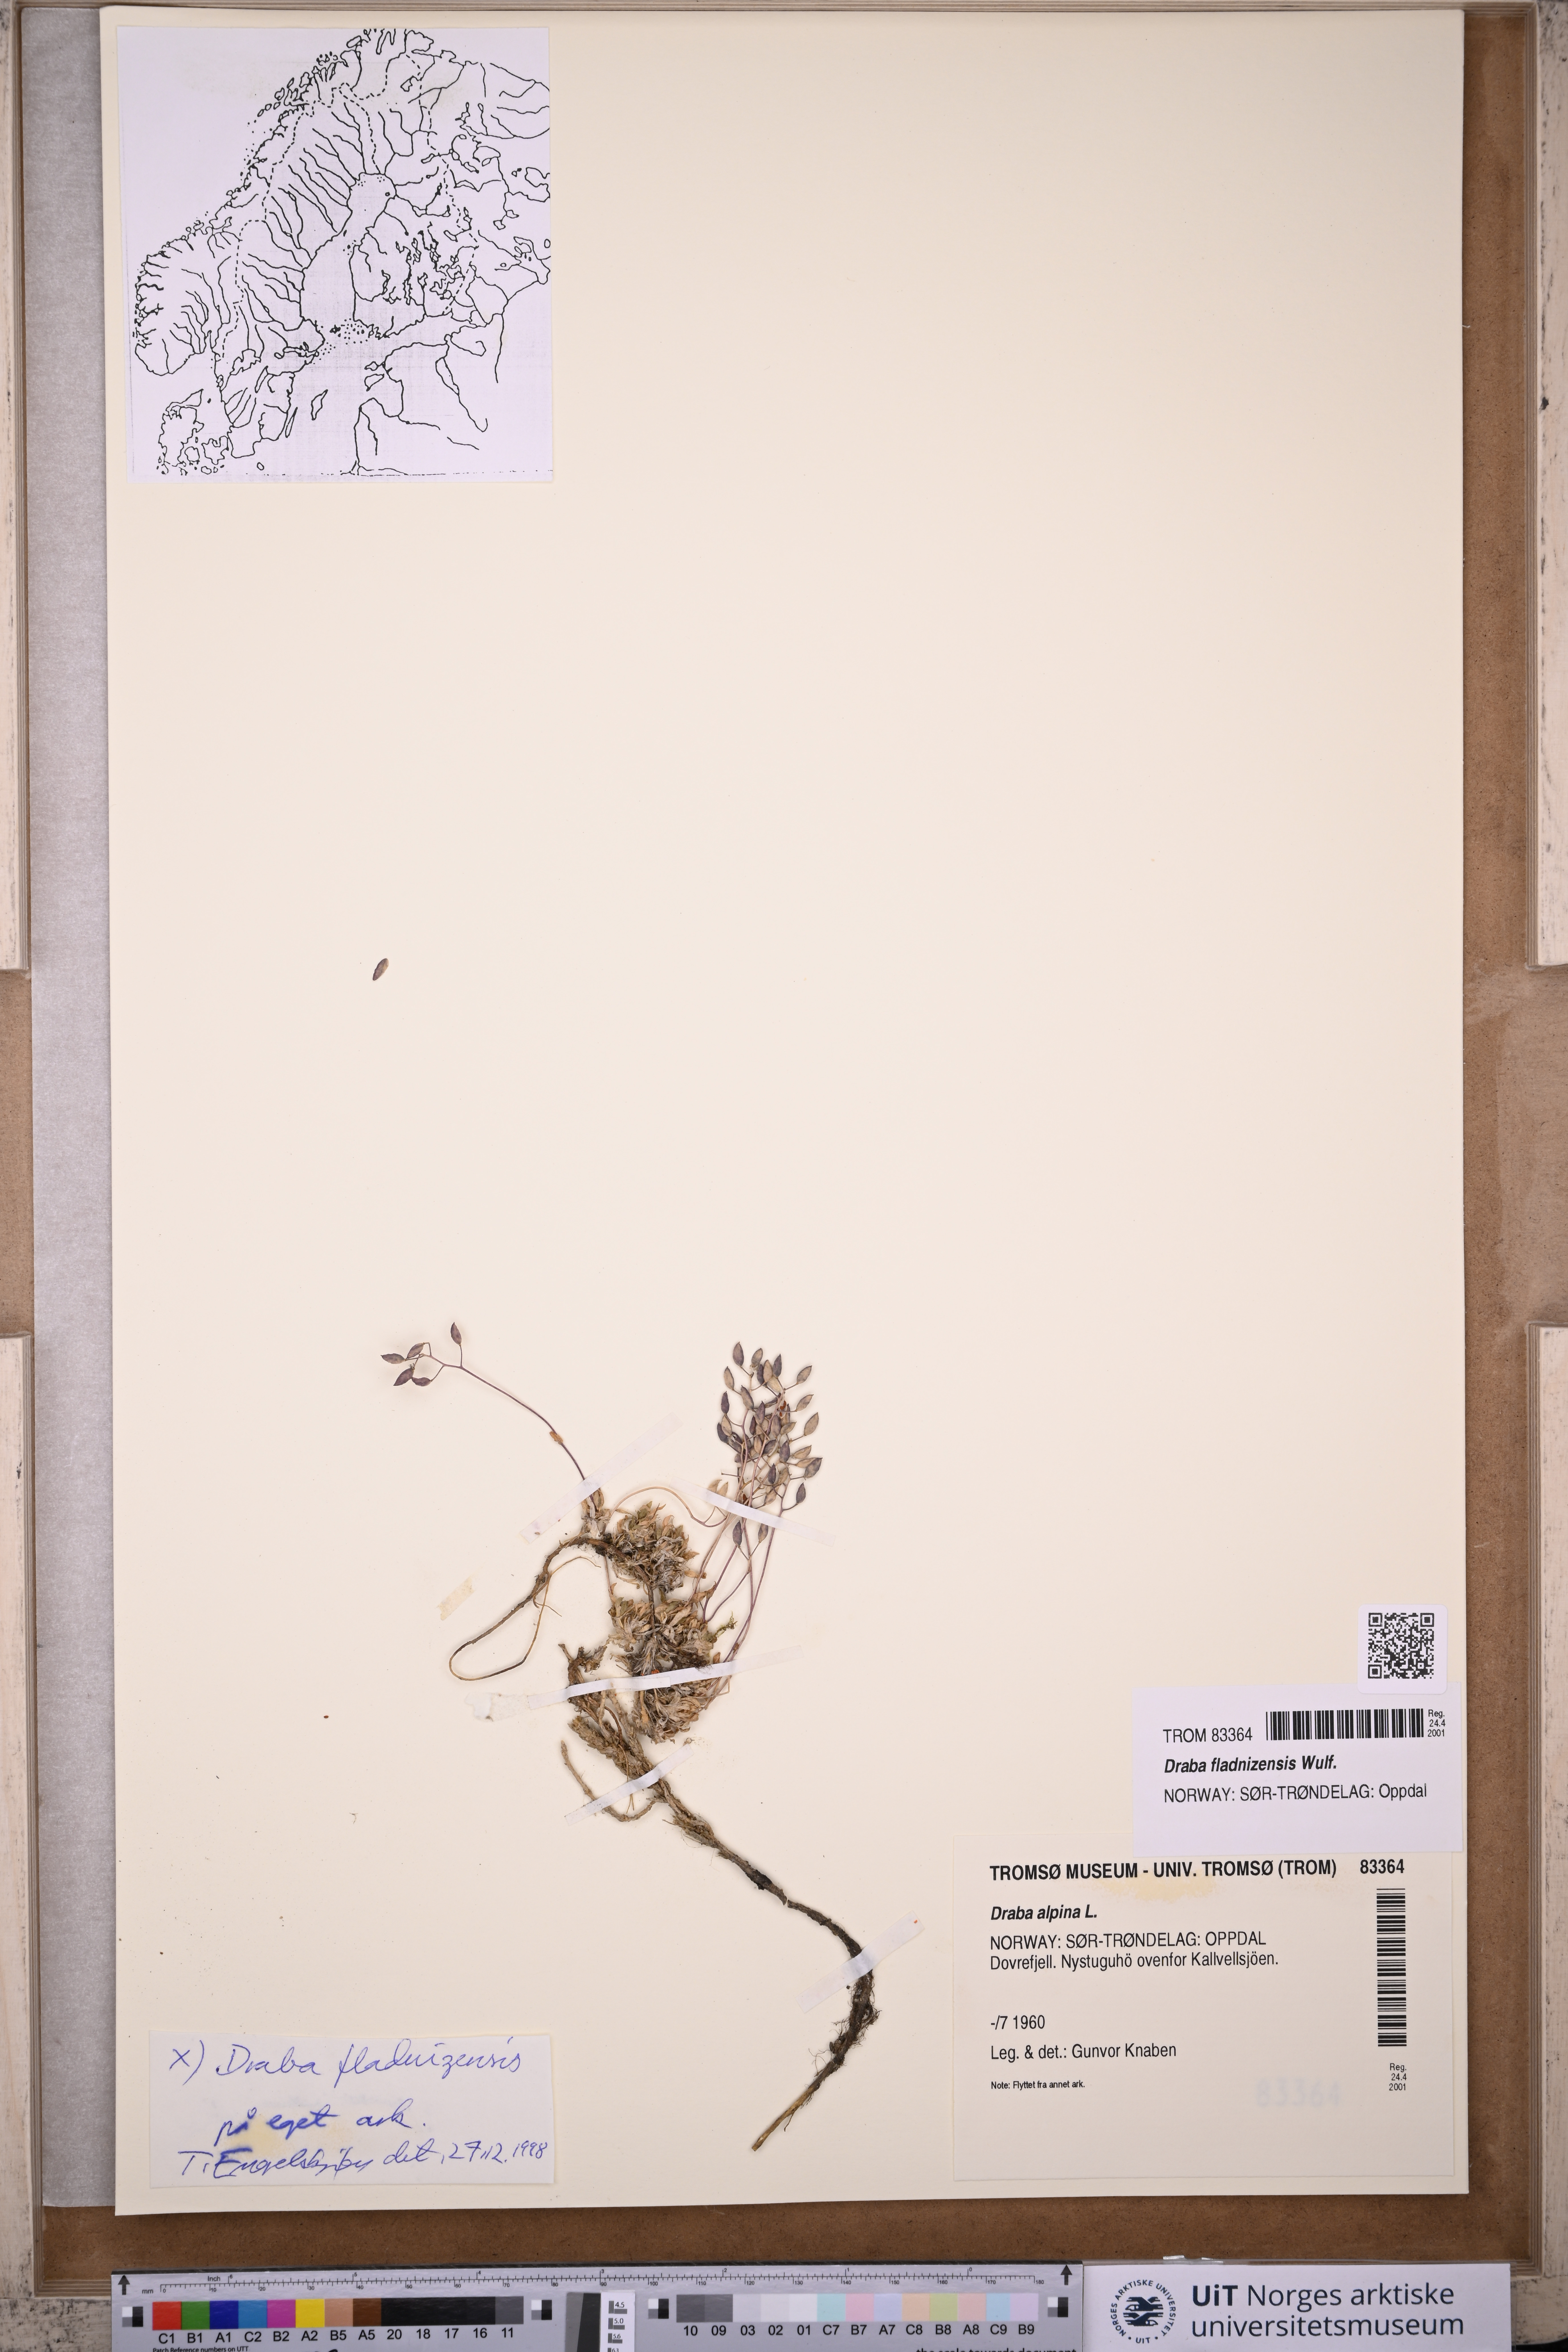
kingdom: Plantae
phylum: Tracheophyta
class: Magnoliopsida
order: Brassicales
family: Brassicaceae
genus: Draba
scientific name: Draba fladnizensis
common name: Austrian draba
